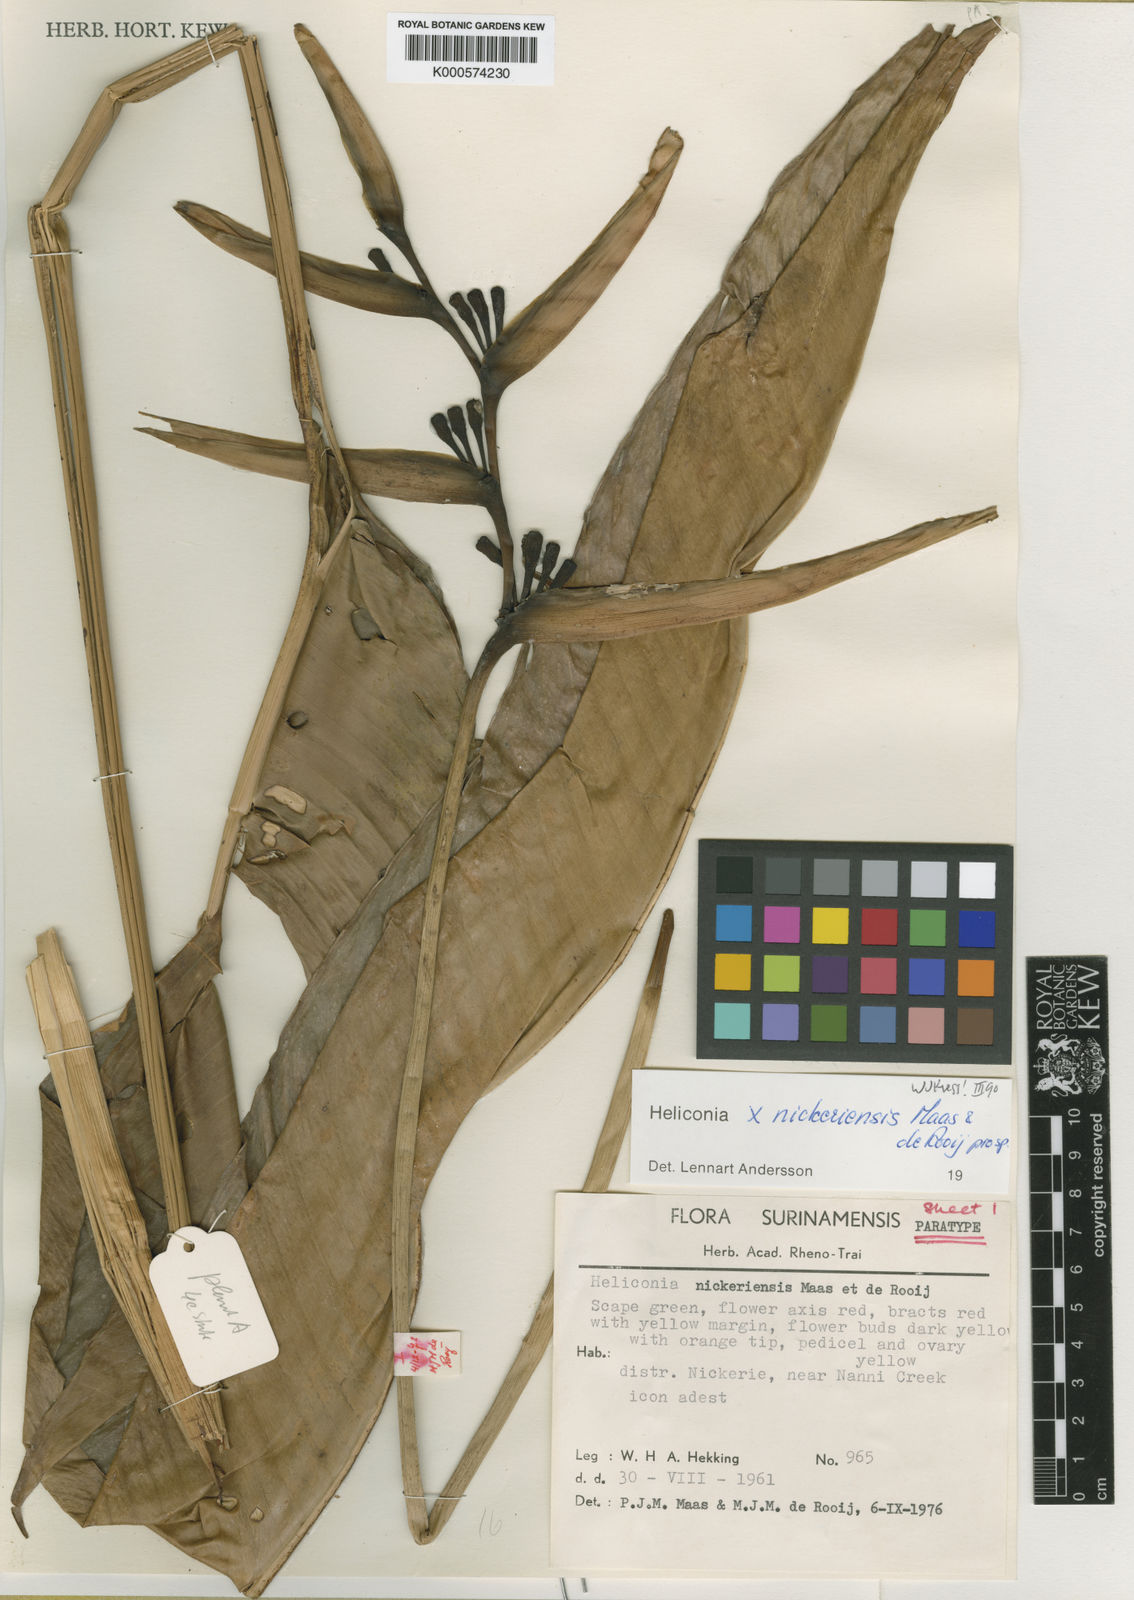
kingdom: Plantae
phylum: Tracheophyta
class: Liliopsida
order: Zingiberales
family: Heliconiaceae
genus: Heliconia
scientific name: Heliconia nickeriensis
